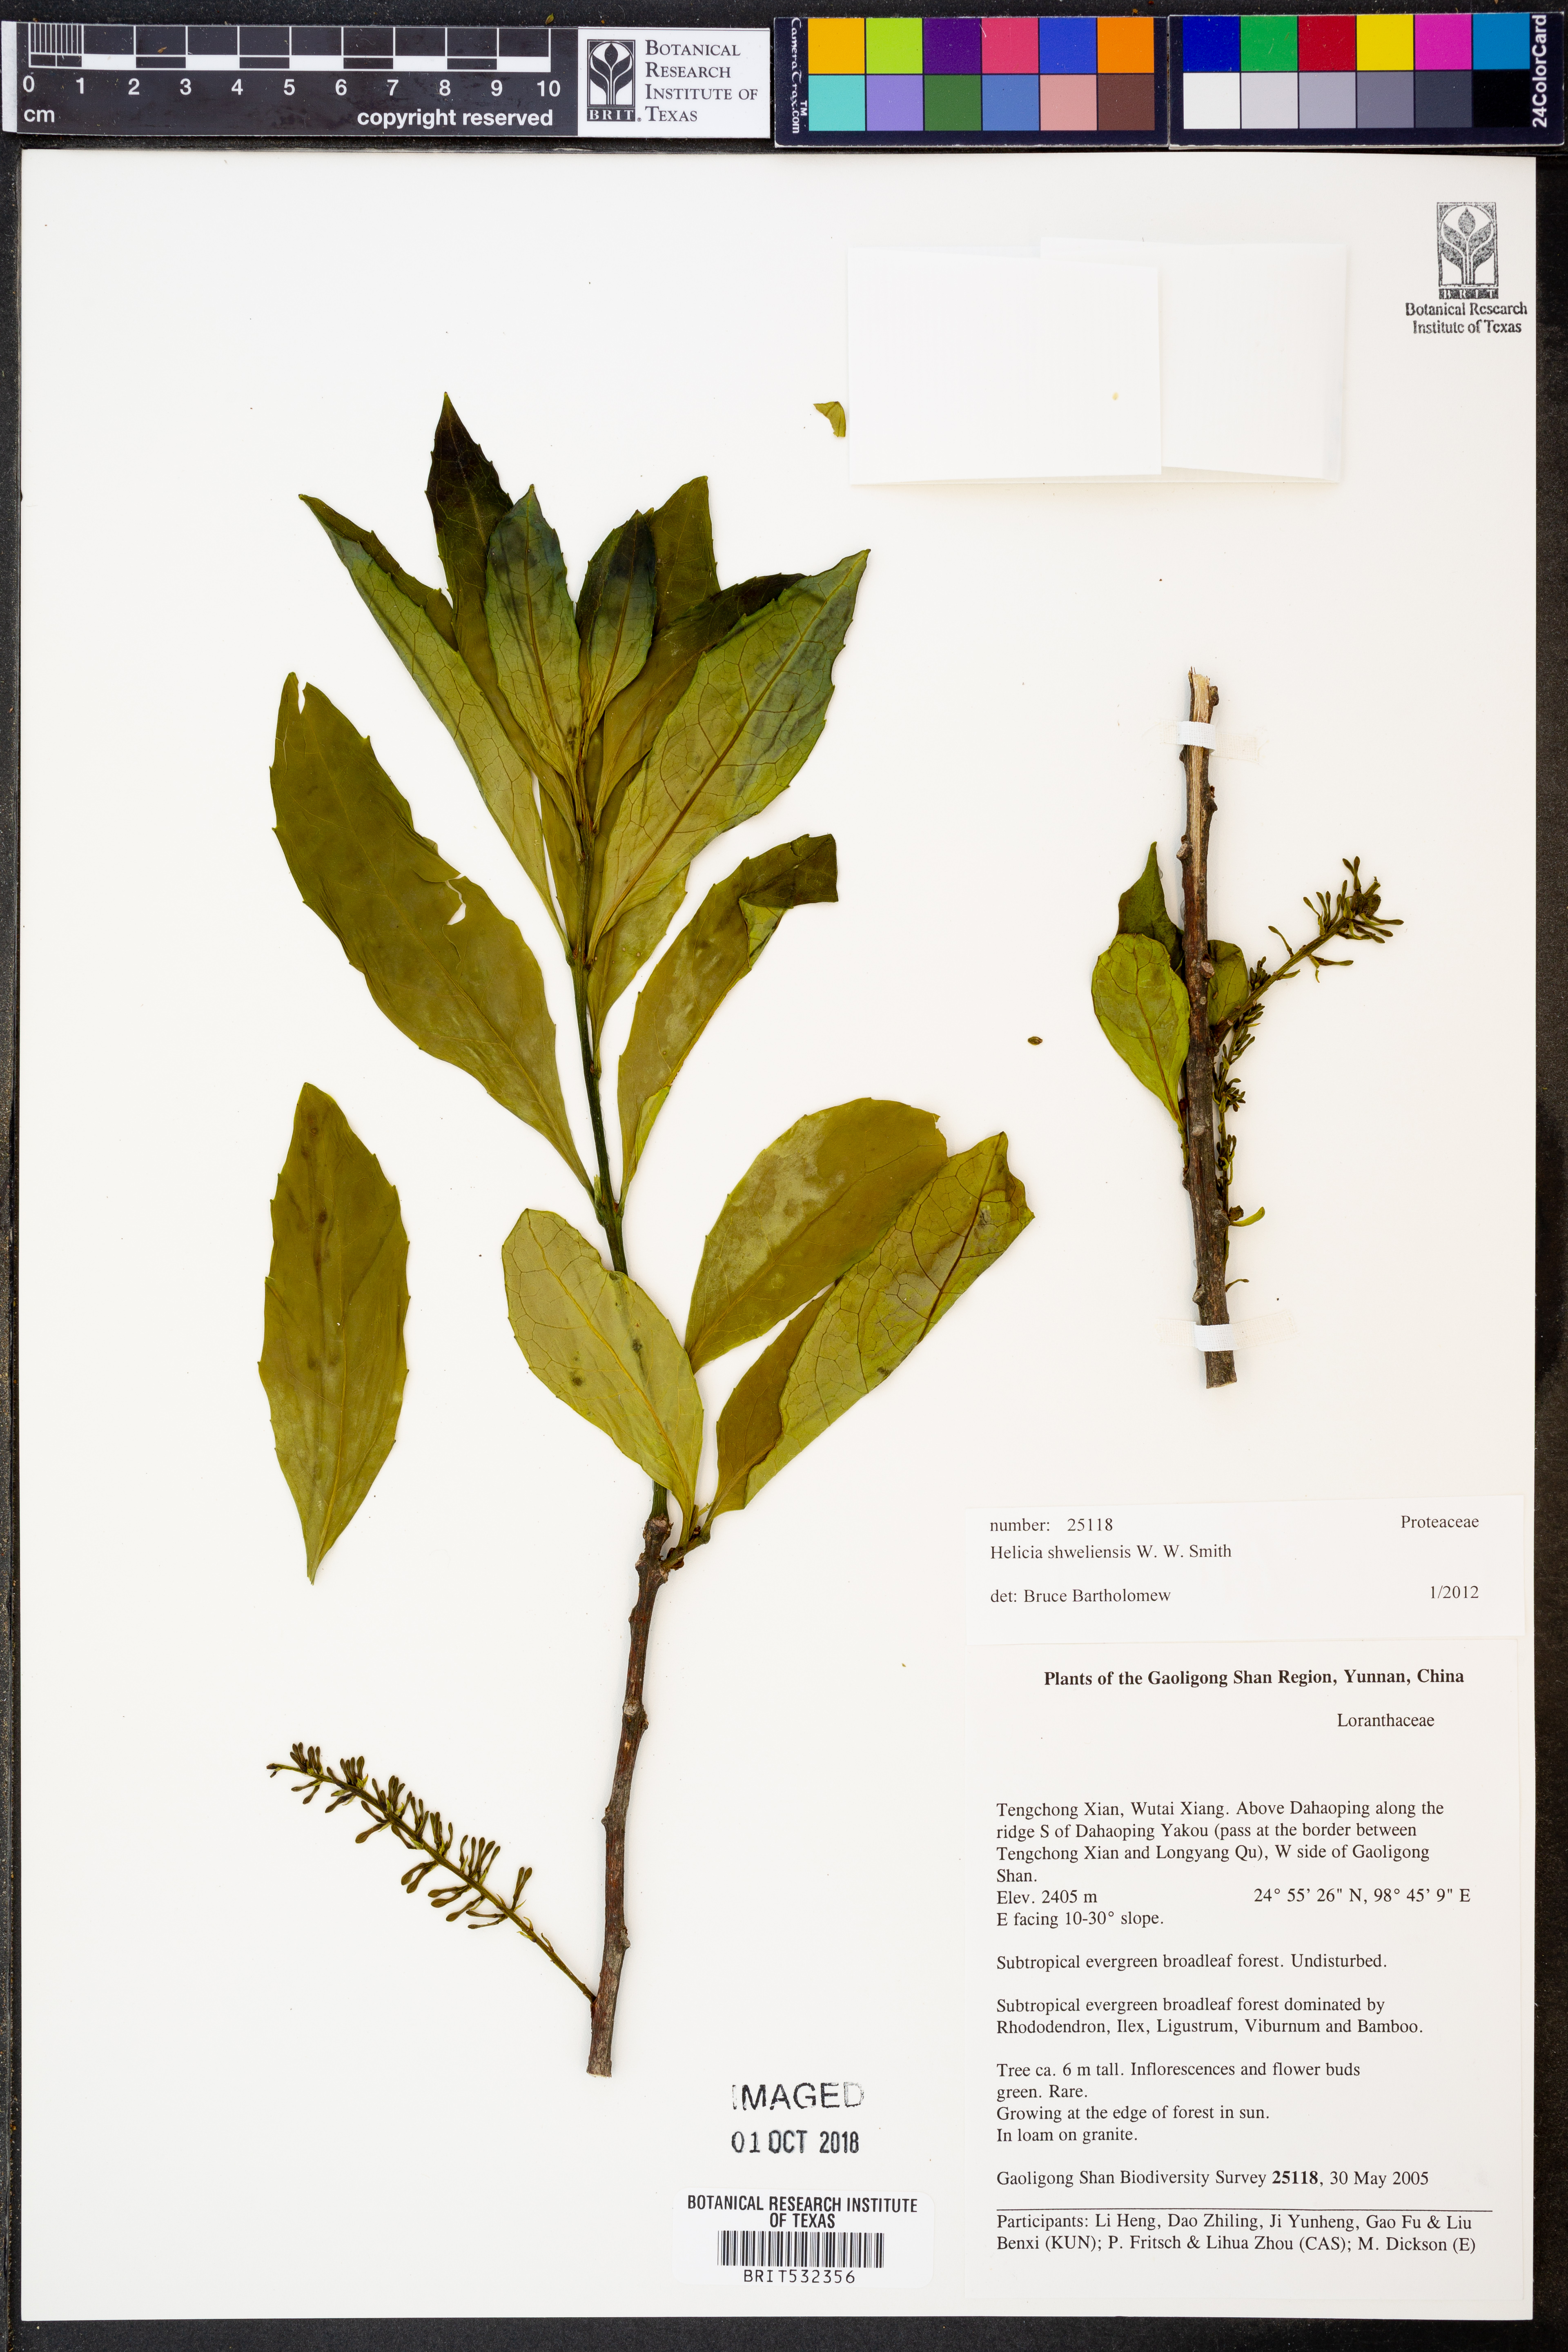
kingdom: Plantae
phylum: Tracheophyta
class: Magnoliopsida
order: Proteales
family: Proteaceae
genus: Helicia
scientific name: Helicia shweliensis
